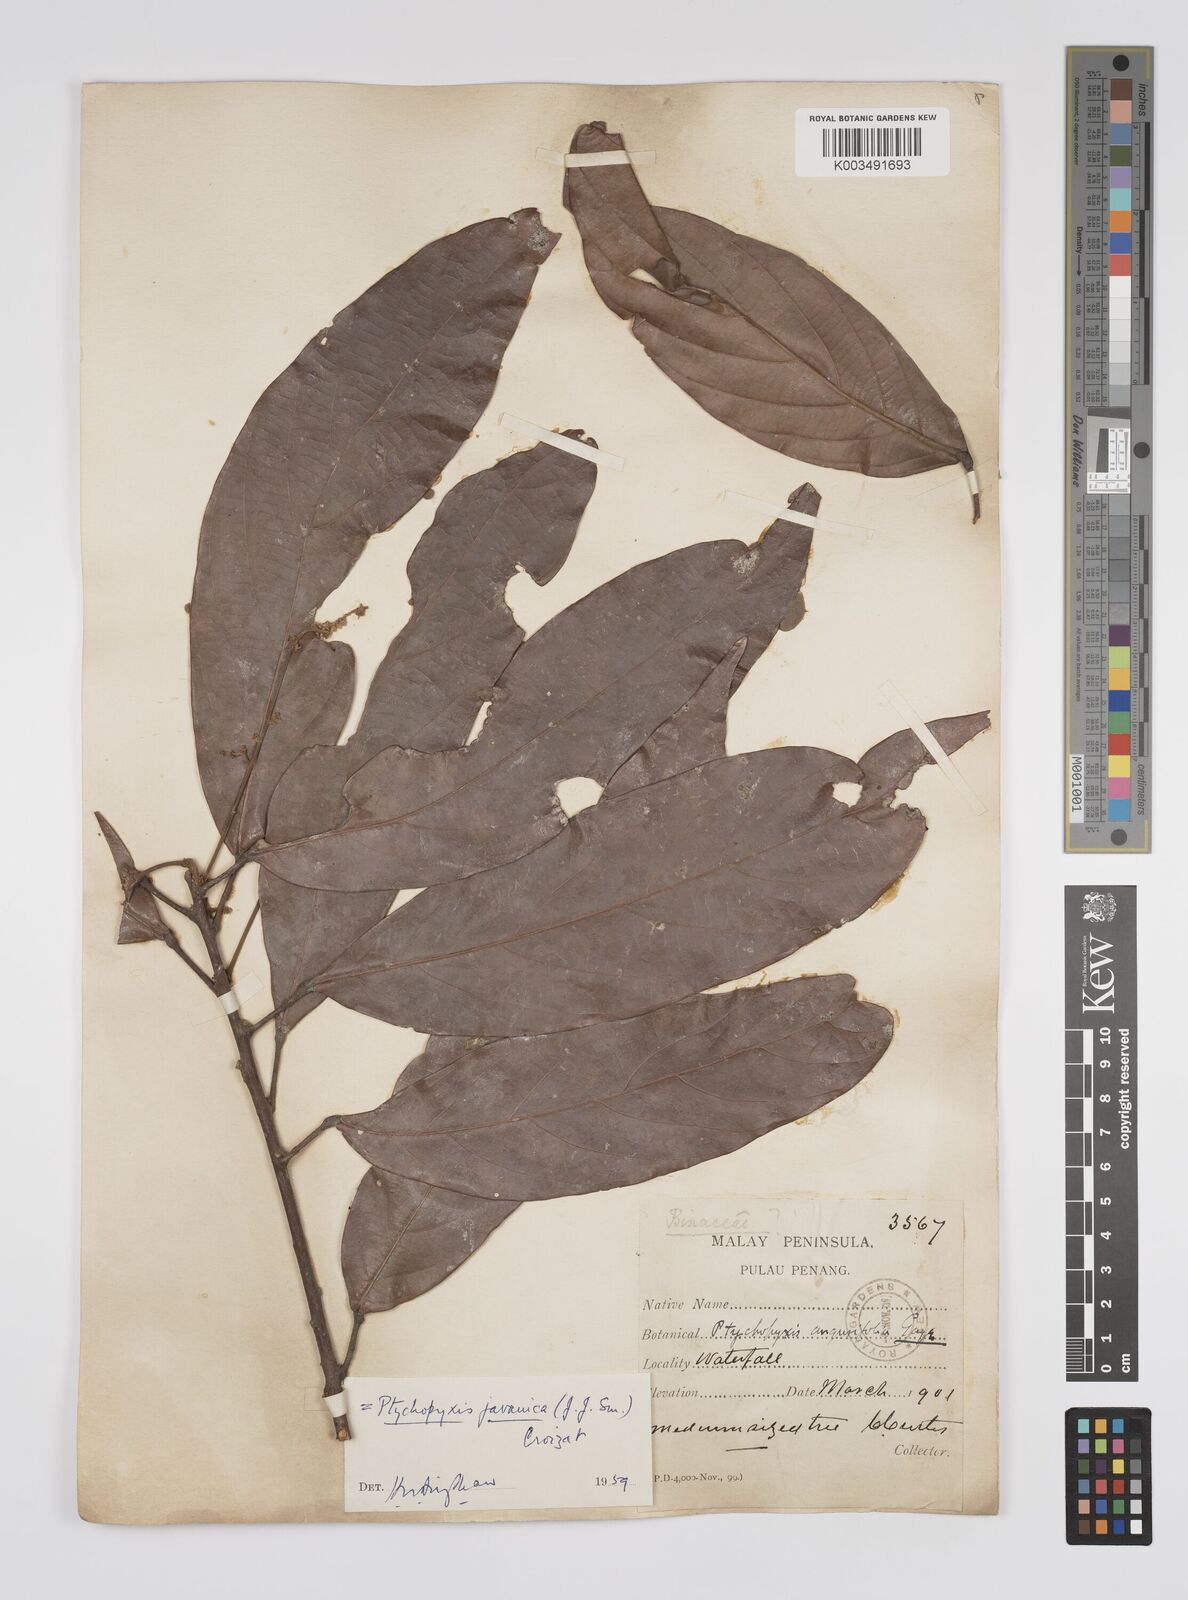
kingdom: Plantae
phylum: Tracheophyta
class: Magnoliopsida
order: Malpighiales
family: Euphorbiaceae
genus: Ptychopyxis
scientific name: Ptychopyxis javanica
